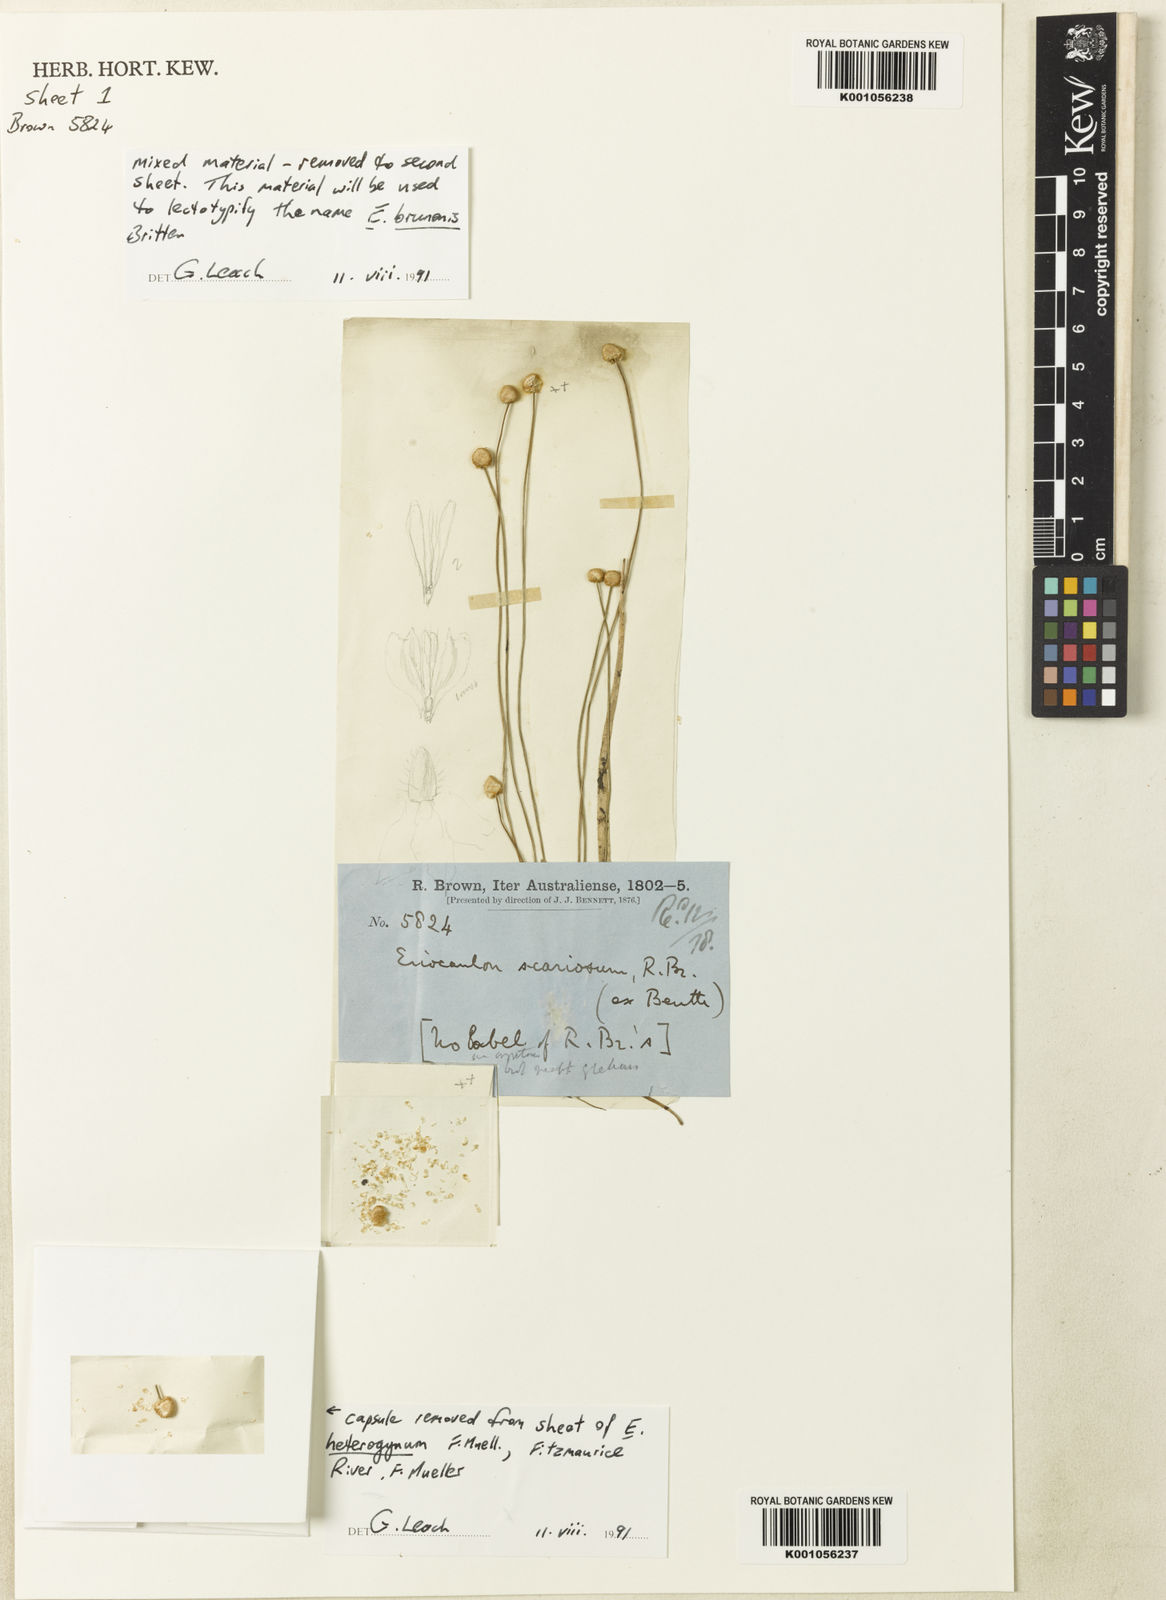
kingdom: Plantae
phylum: Tracheophyta
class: Liliopsida
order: Poales
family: Eriocaulaceae
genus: Eriocaulon
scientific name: Eriocaulon brunonis
